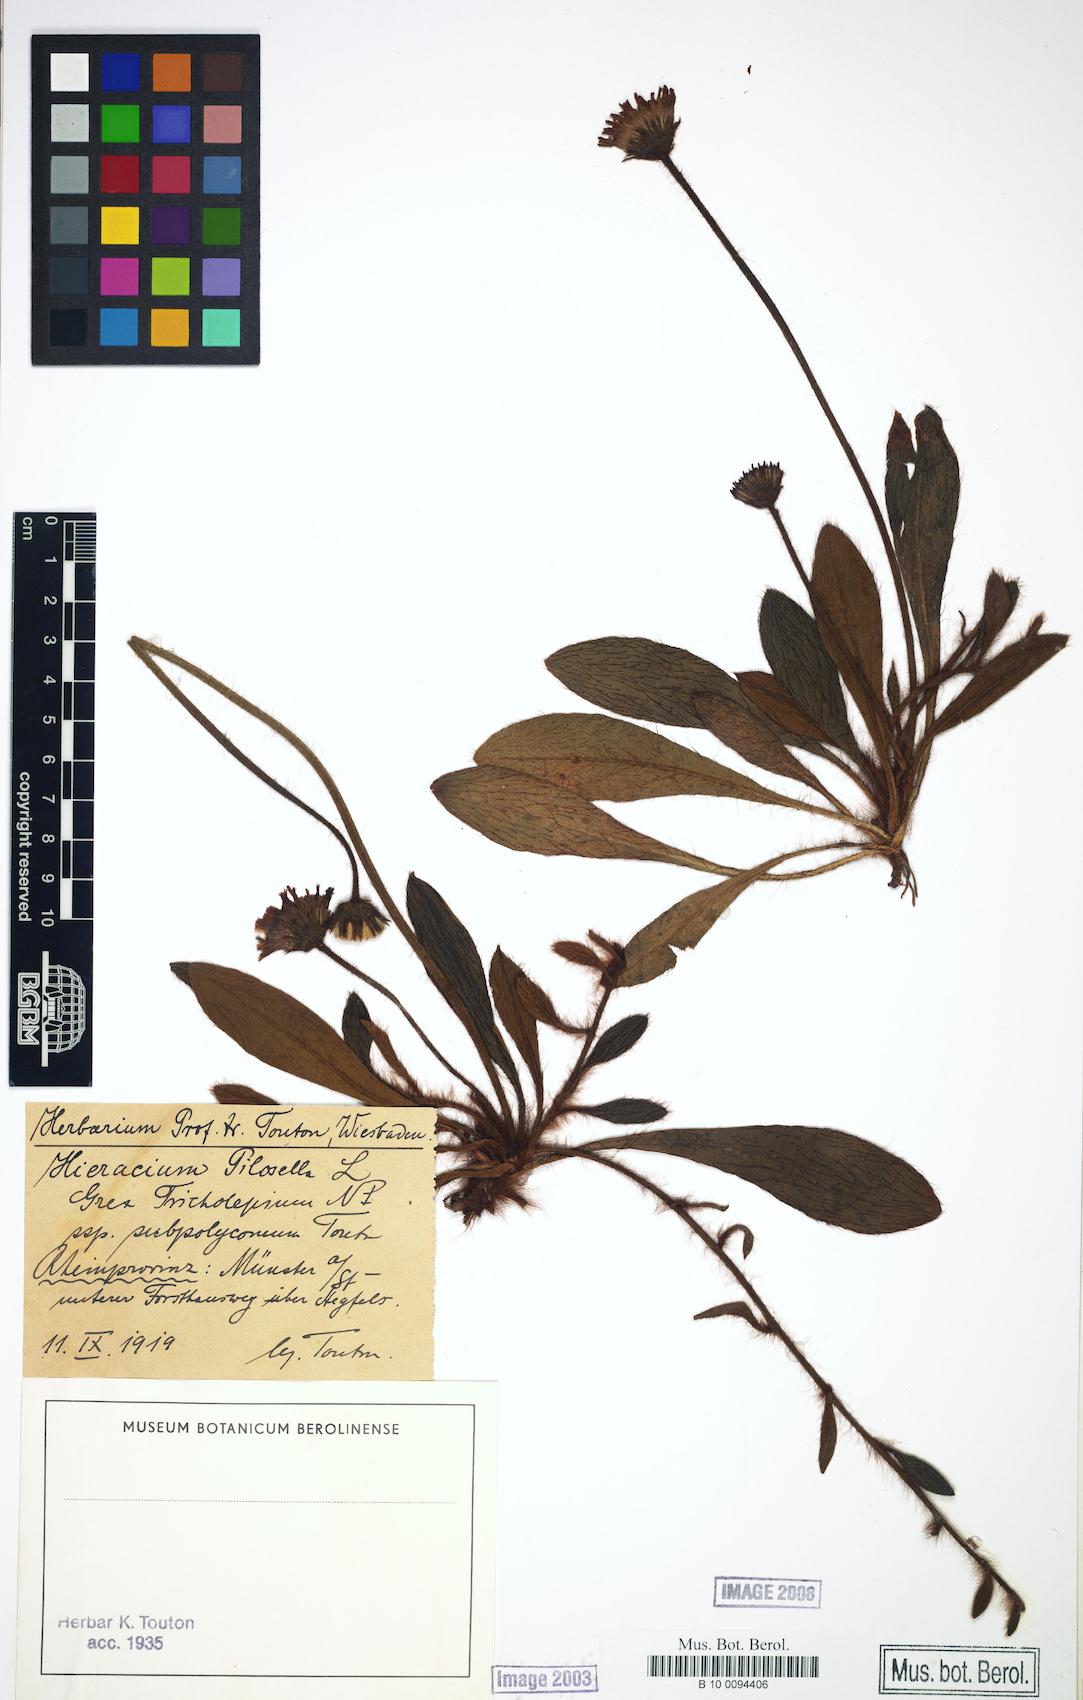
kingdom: Plantae
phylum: Tracheophyta
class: Magnoliopsida
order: Asterales
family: Asteraceae
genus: Pilosella
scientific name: Pilosella officinarum
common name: Mouse-ear hawkweed
